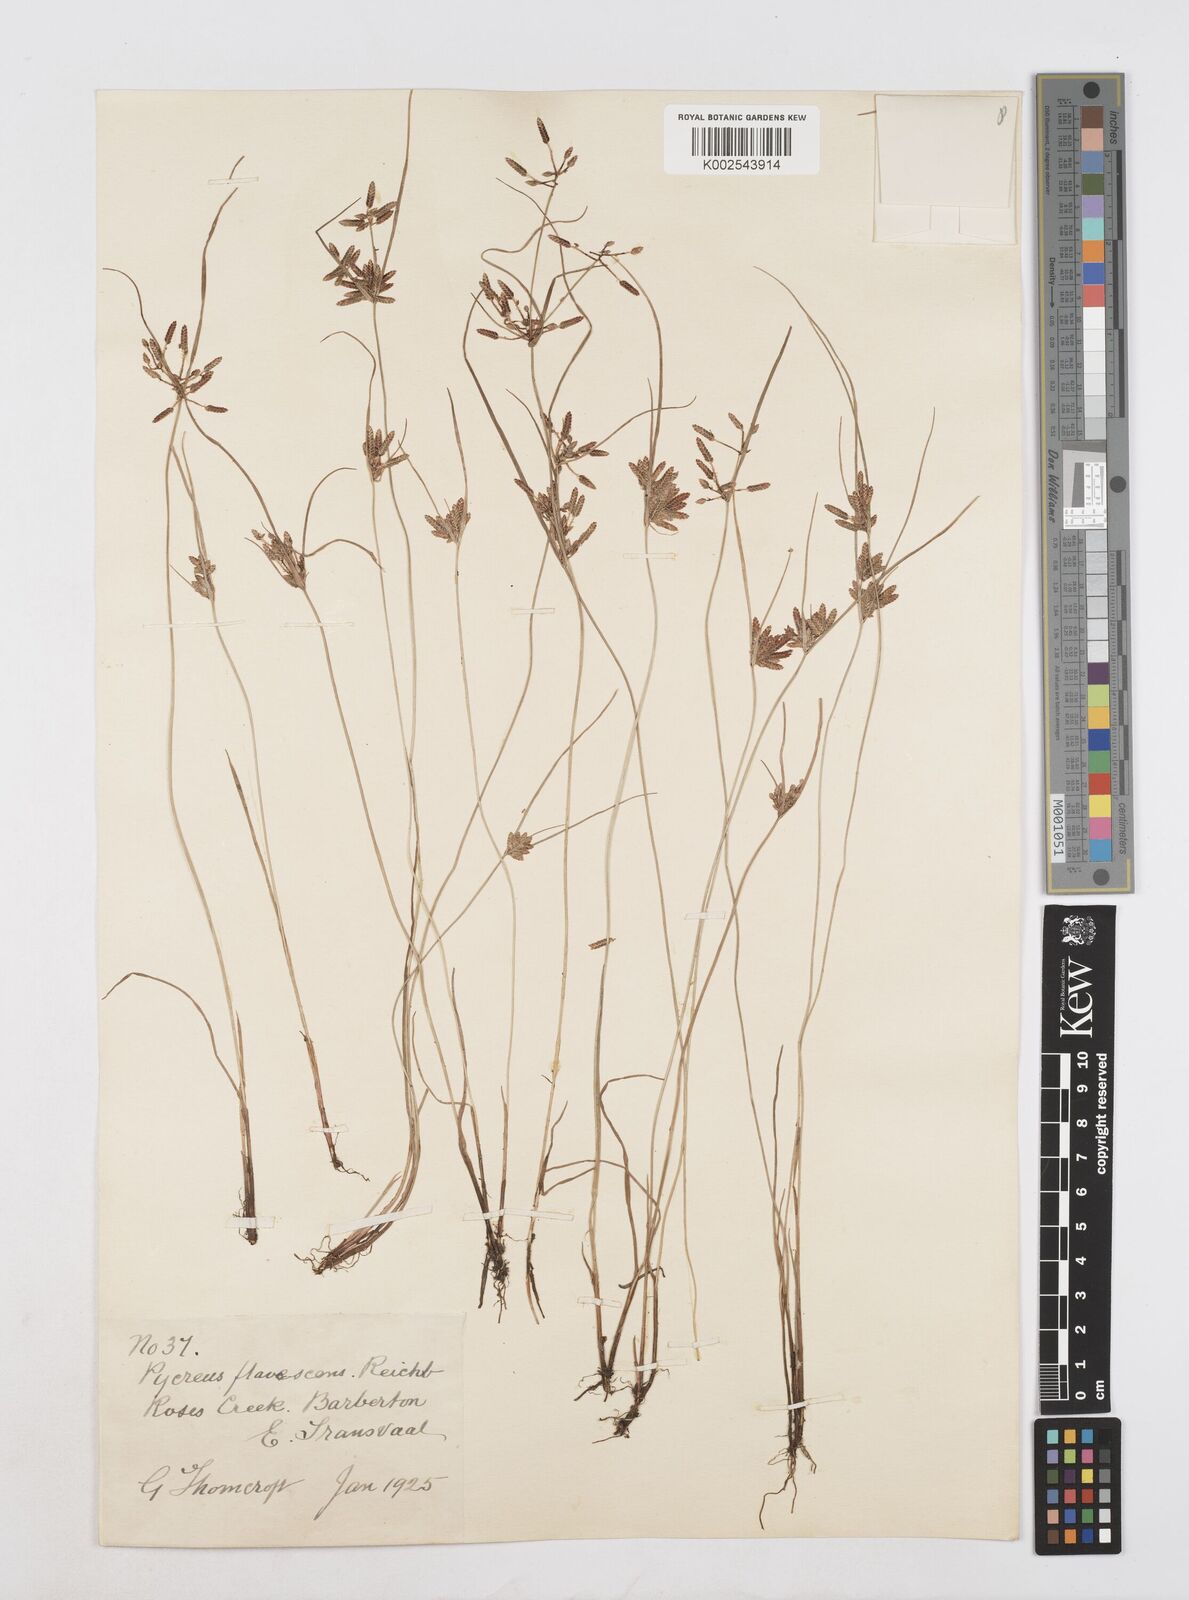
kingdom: Plantae
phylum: Tracheophyta
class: Liliopsida
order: Poales
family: Cyperaceae
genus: Cyperus
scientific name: Cyperus flavescens
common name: Yellow galingale
